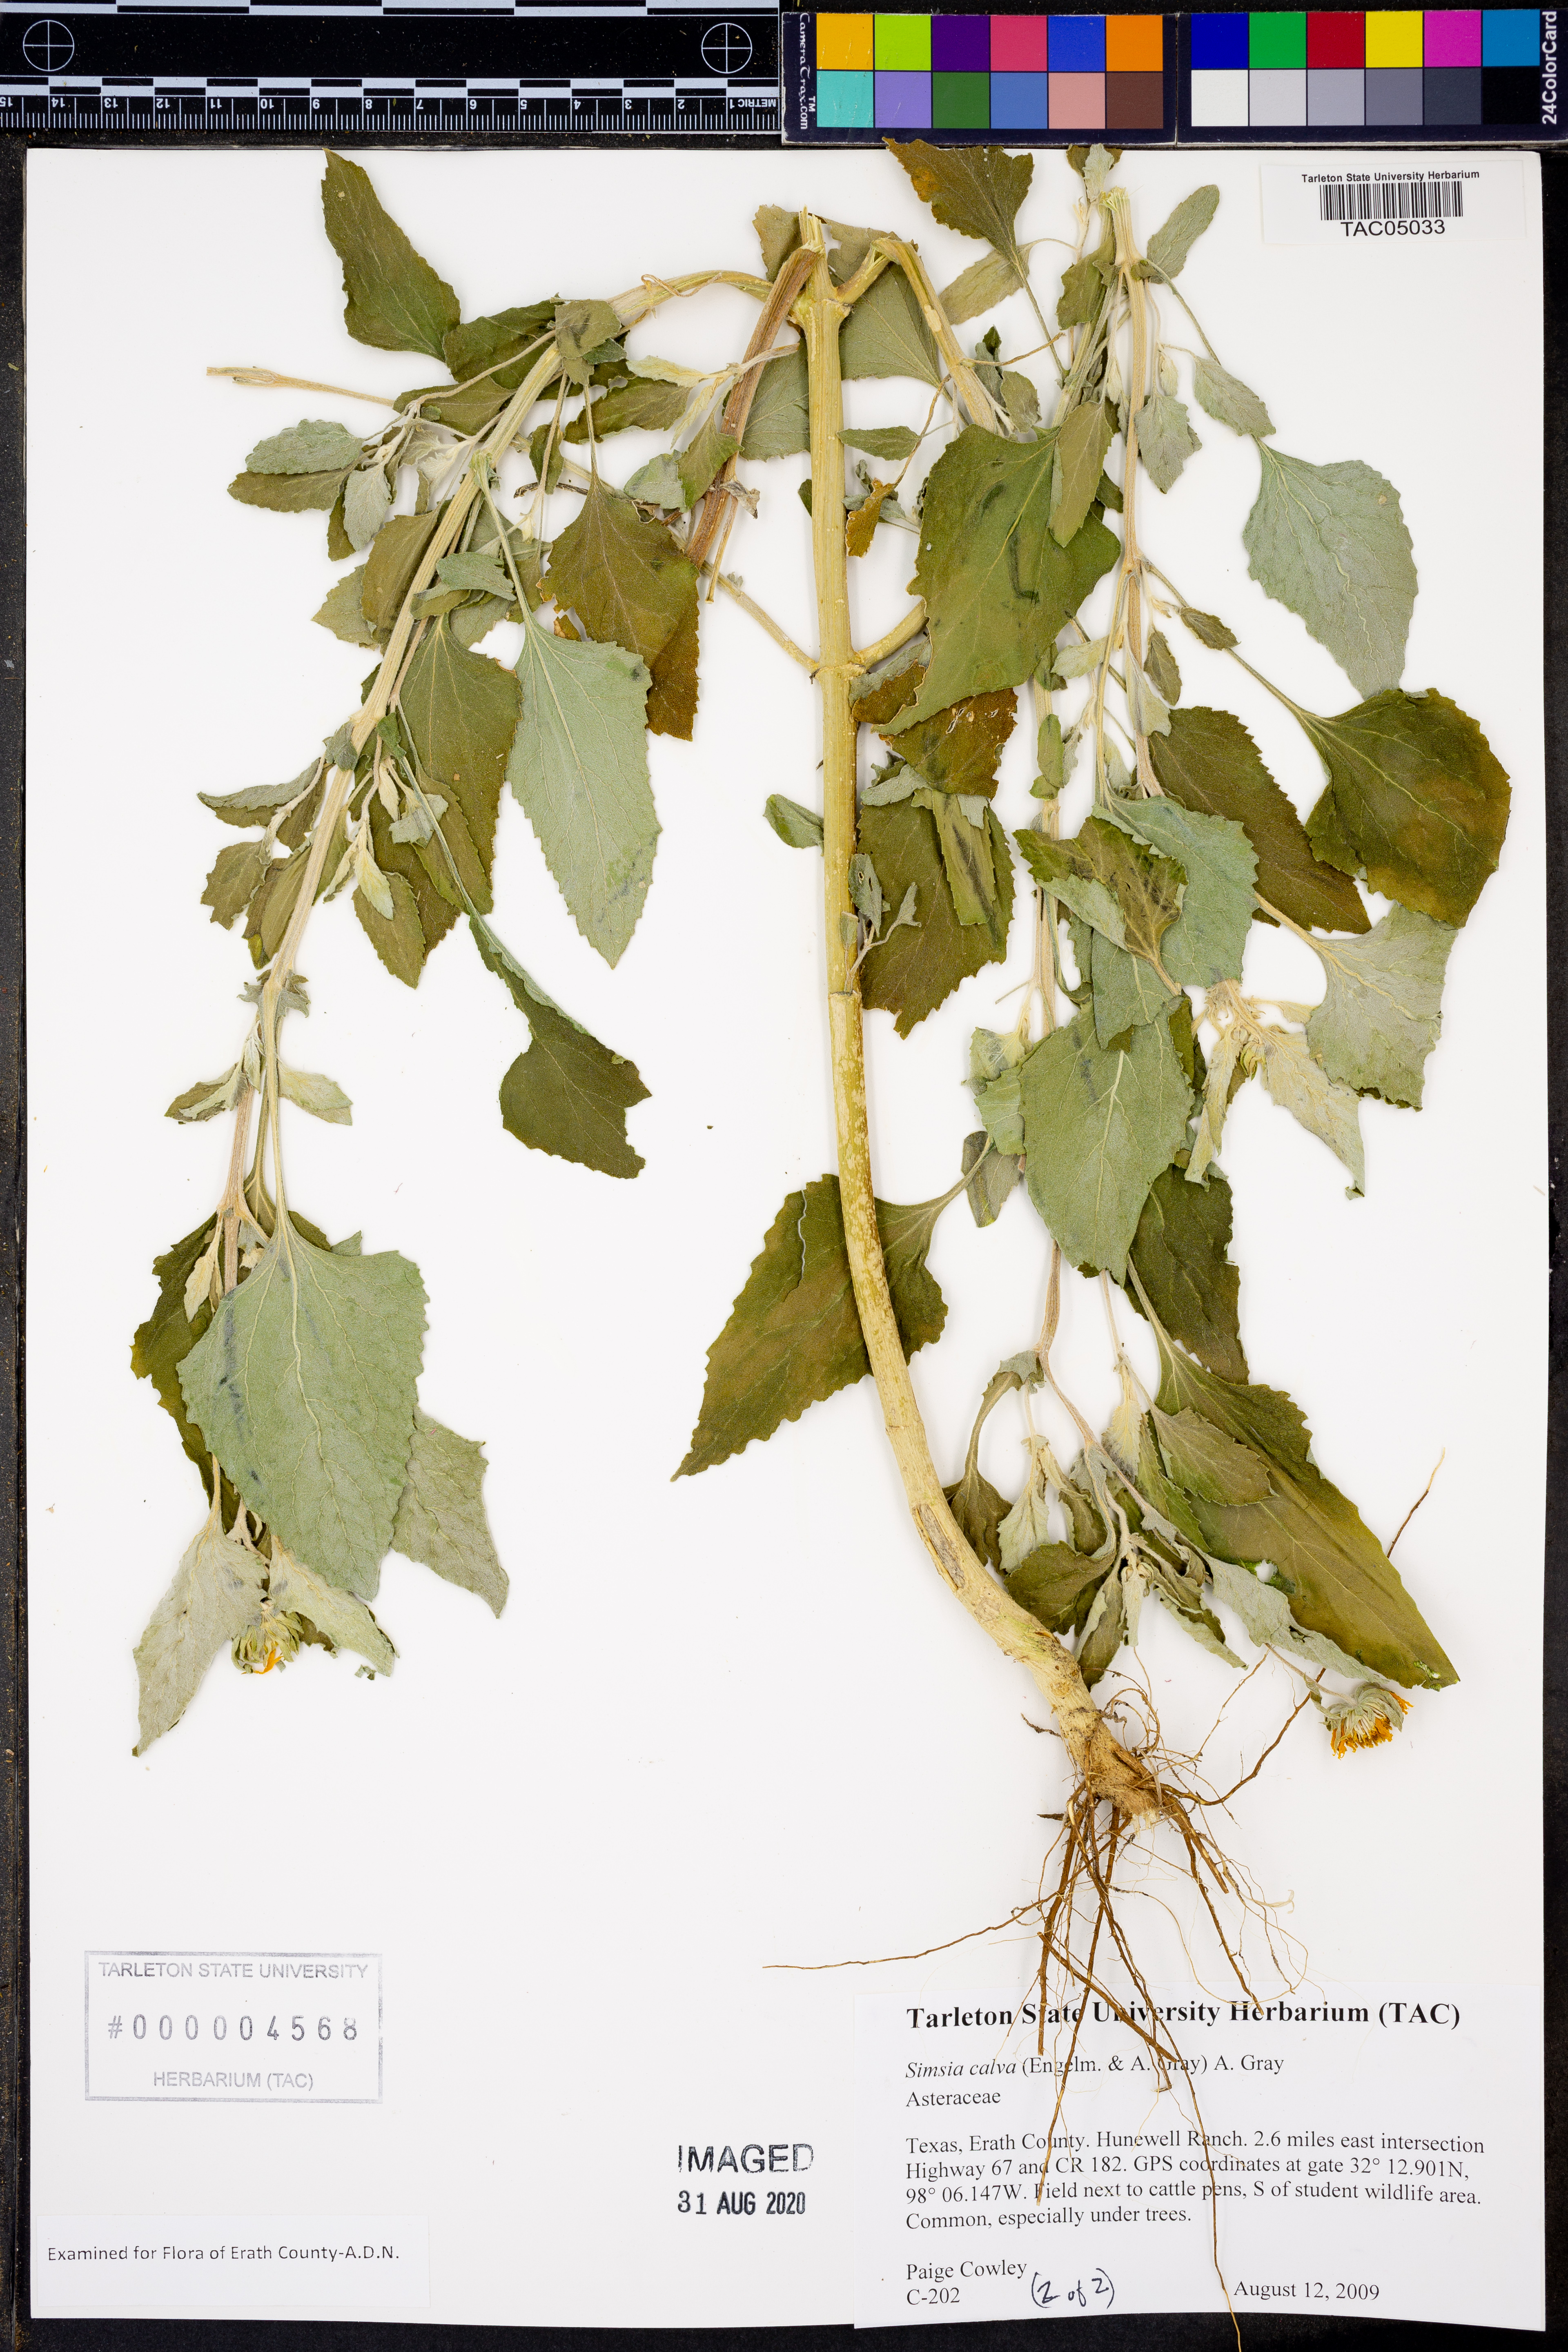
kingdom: Plantae
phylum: Tracheophyta
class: Magnoliopsida
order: Asterales
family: Asteraceae
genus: Simsia
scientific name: Simsia calva
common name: Awnless bush-sunflower
